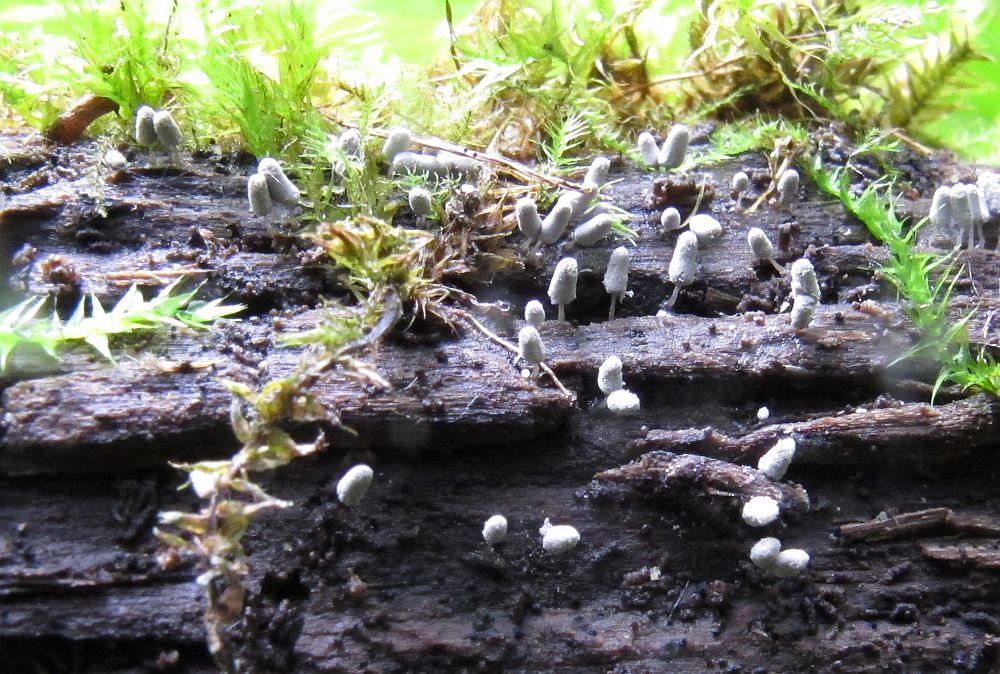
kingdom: Protozoa
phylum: Mycetozoa
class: Myxomycetes
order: Trichiales
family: Arcyriaceae
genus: Arcyria
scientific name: Arcyria cinerea
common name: White carnival candy slime mold
